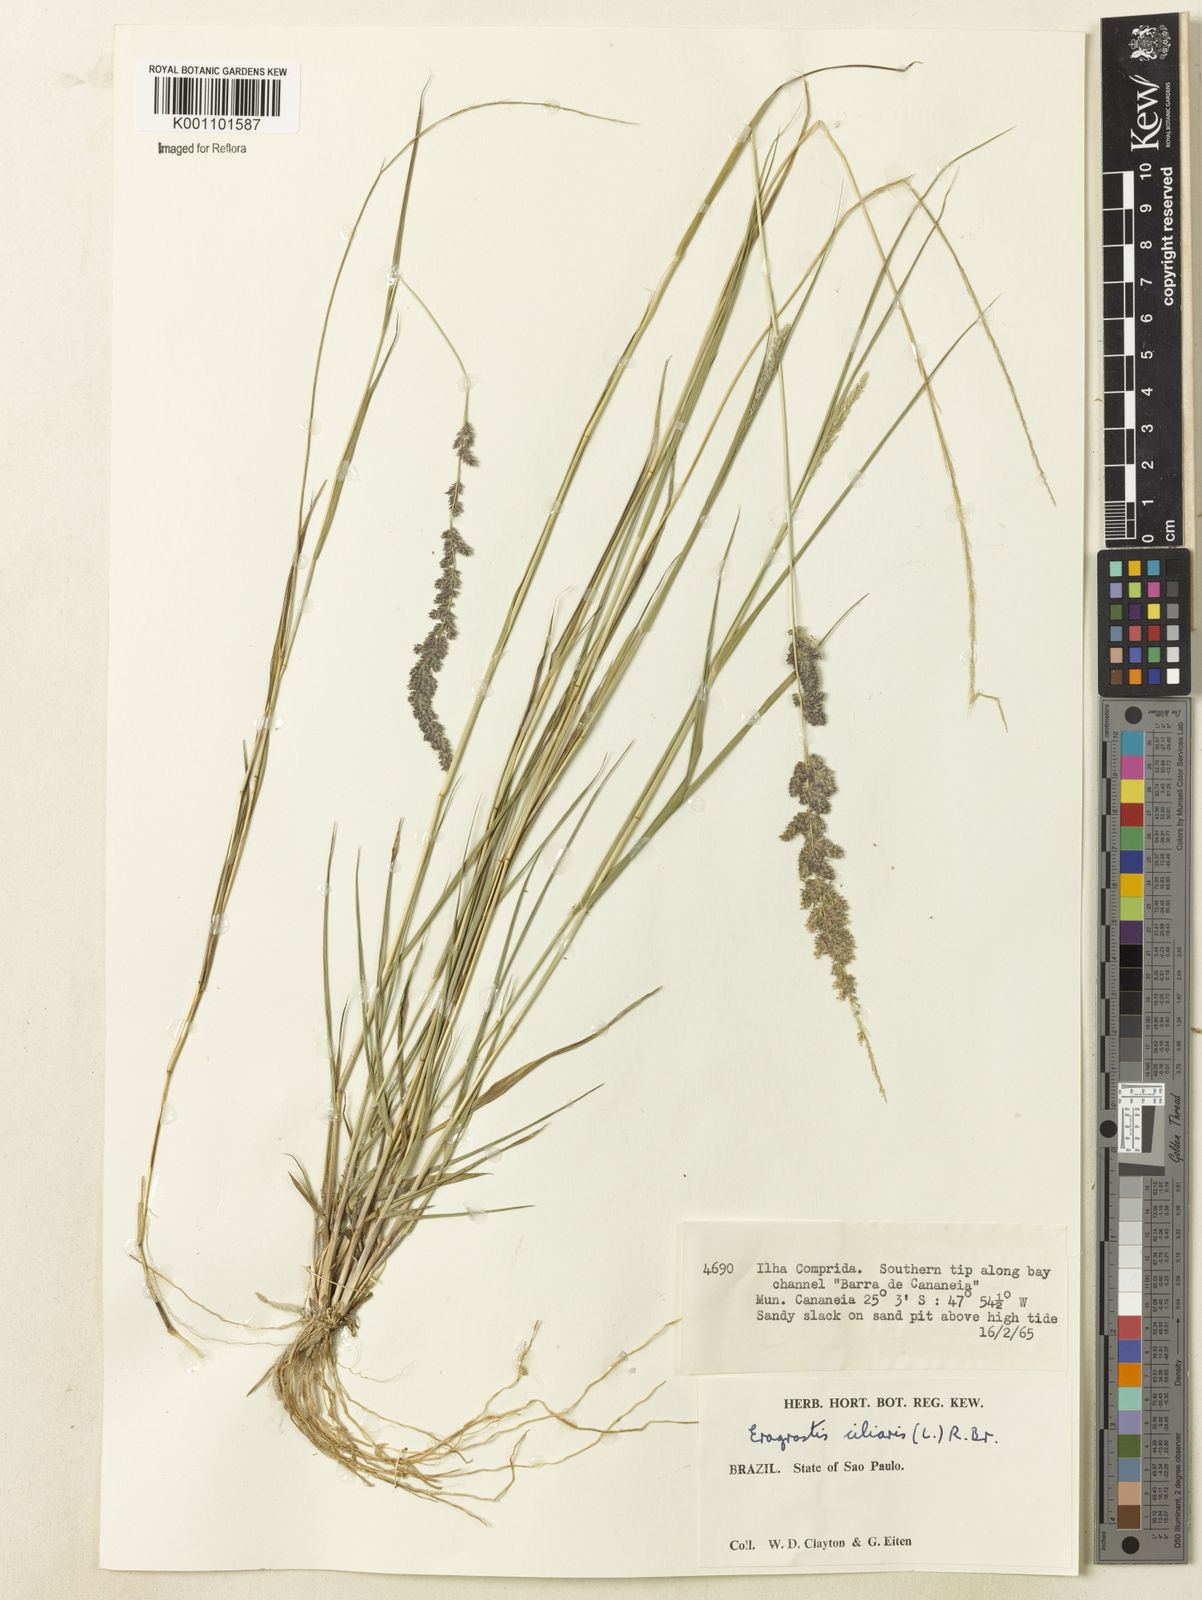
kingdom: Plantae
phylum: Tracheophyta
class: Liliopsida
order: Poales
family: Poaceae
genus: Eragrostis
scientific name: Eragrostis ciliaris
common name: Gophertail lovegrass
